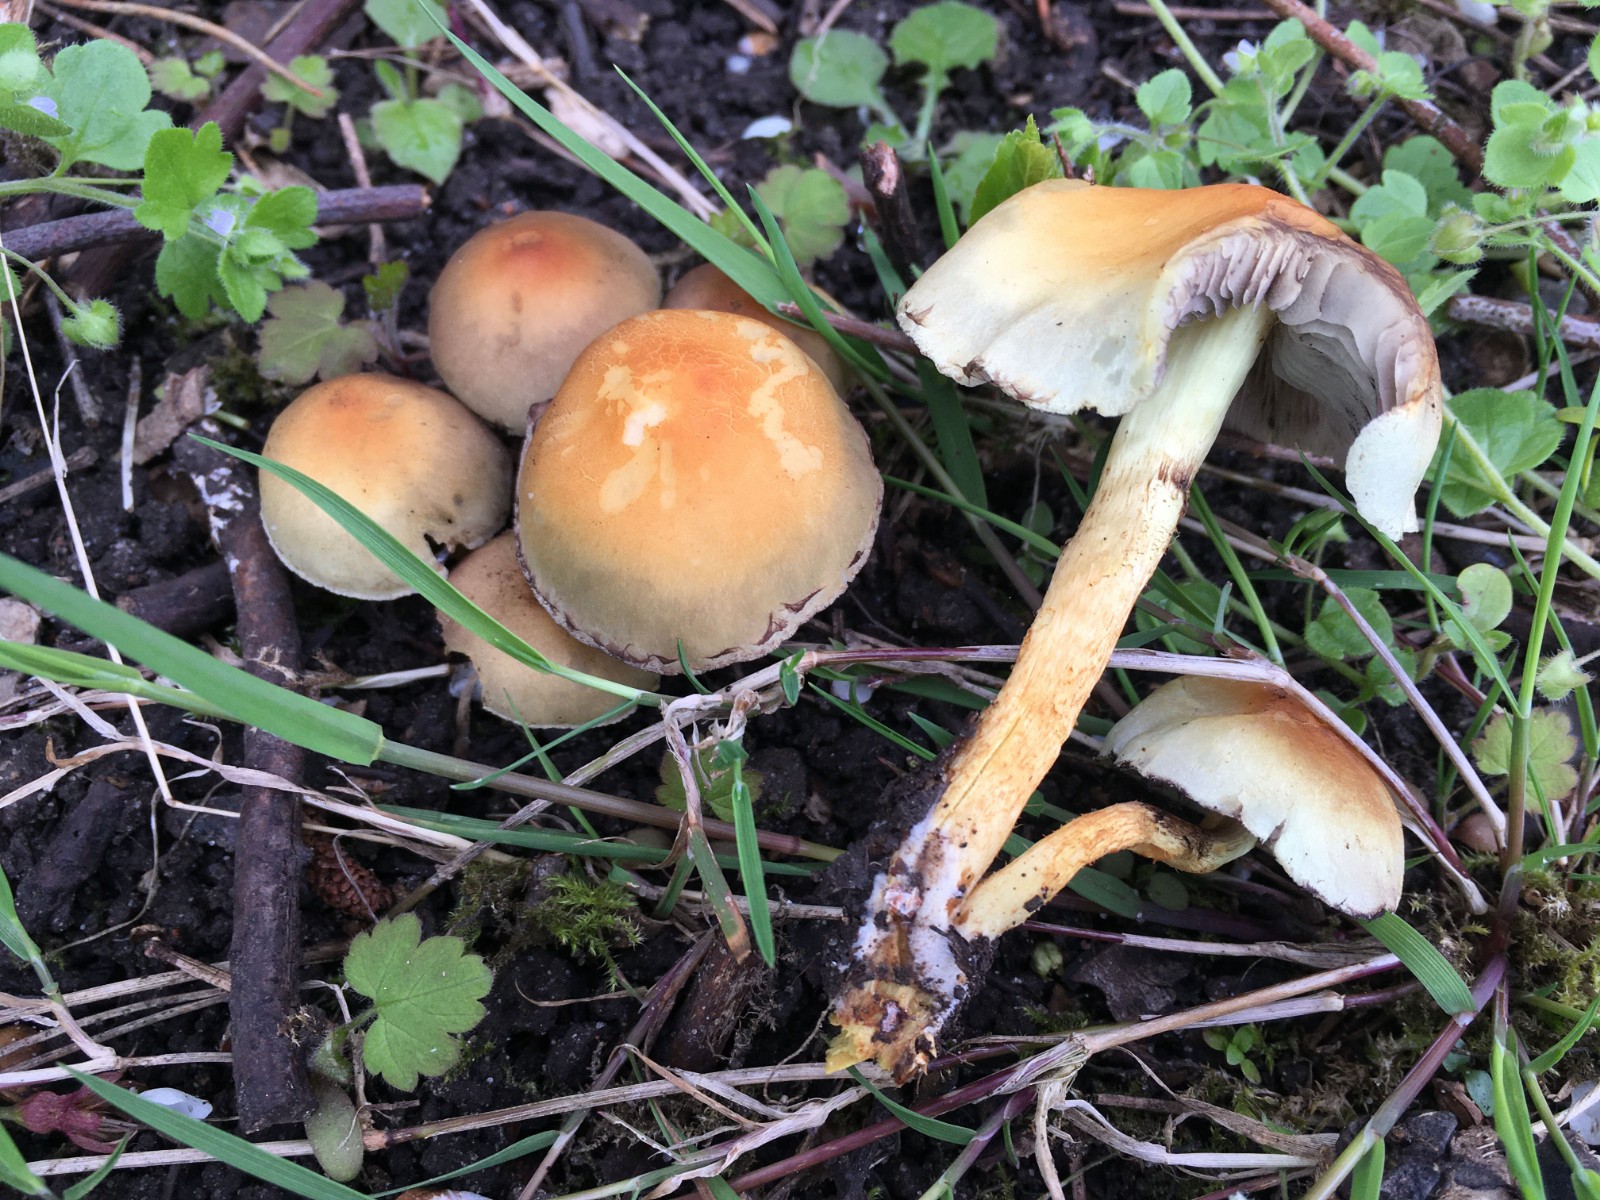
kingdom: Fungi
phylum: Basidiomycota
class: Agaricomycetes
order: Agaricales
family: Strophariaceae
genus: Hypholoma
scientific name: Hypholoma fasciculare
